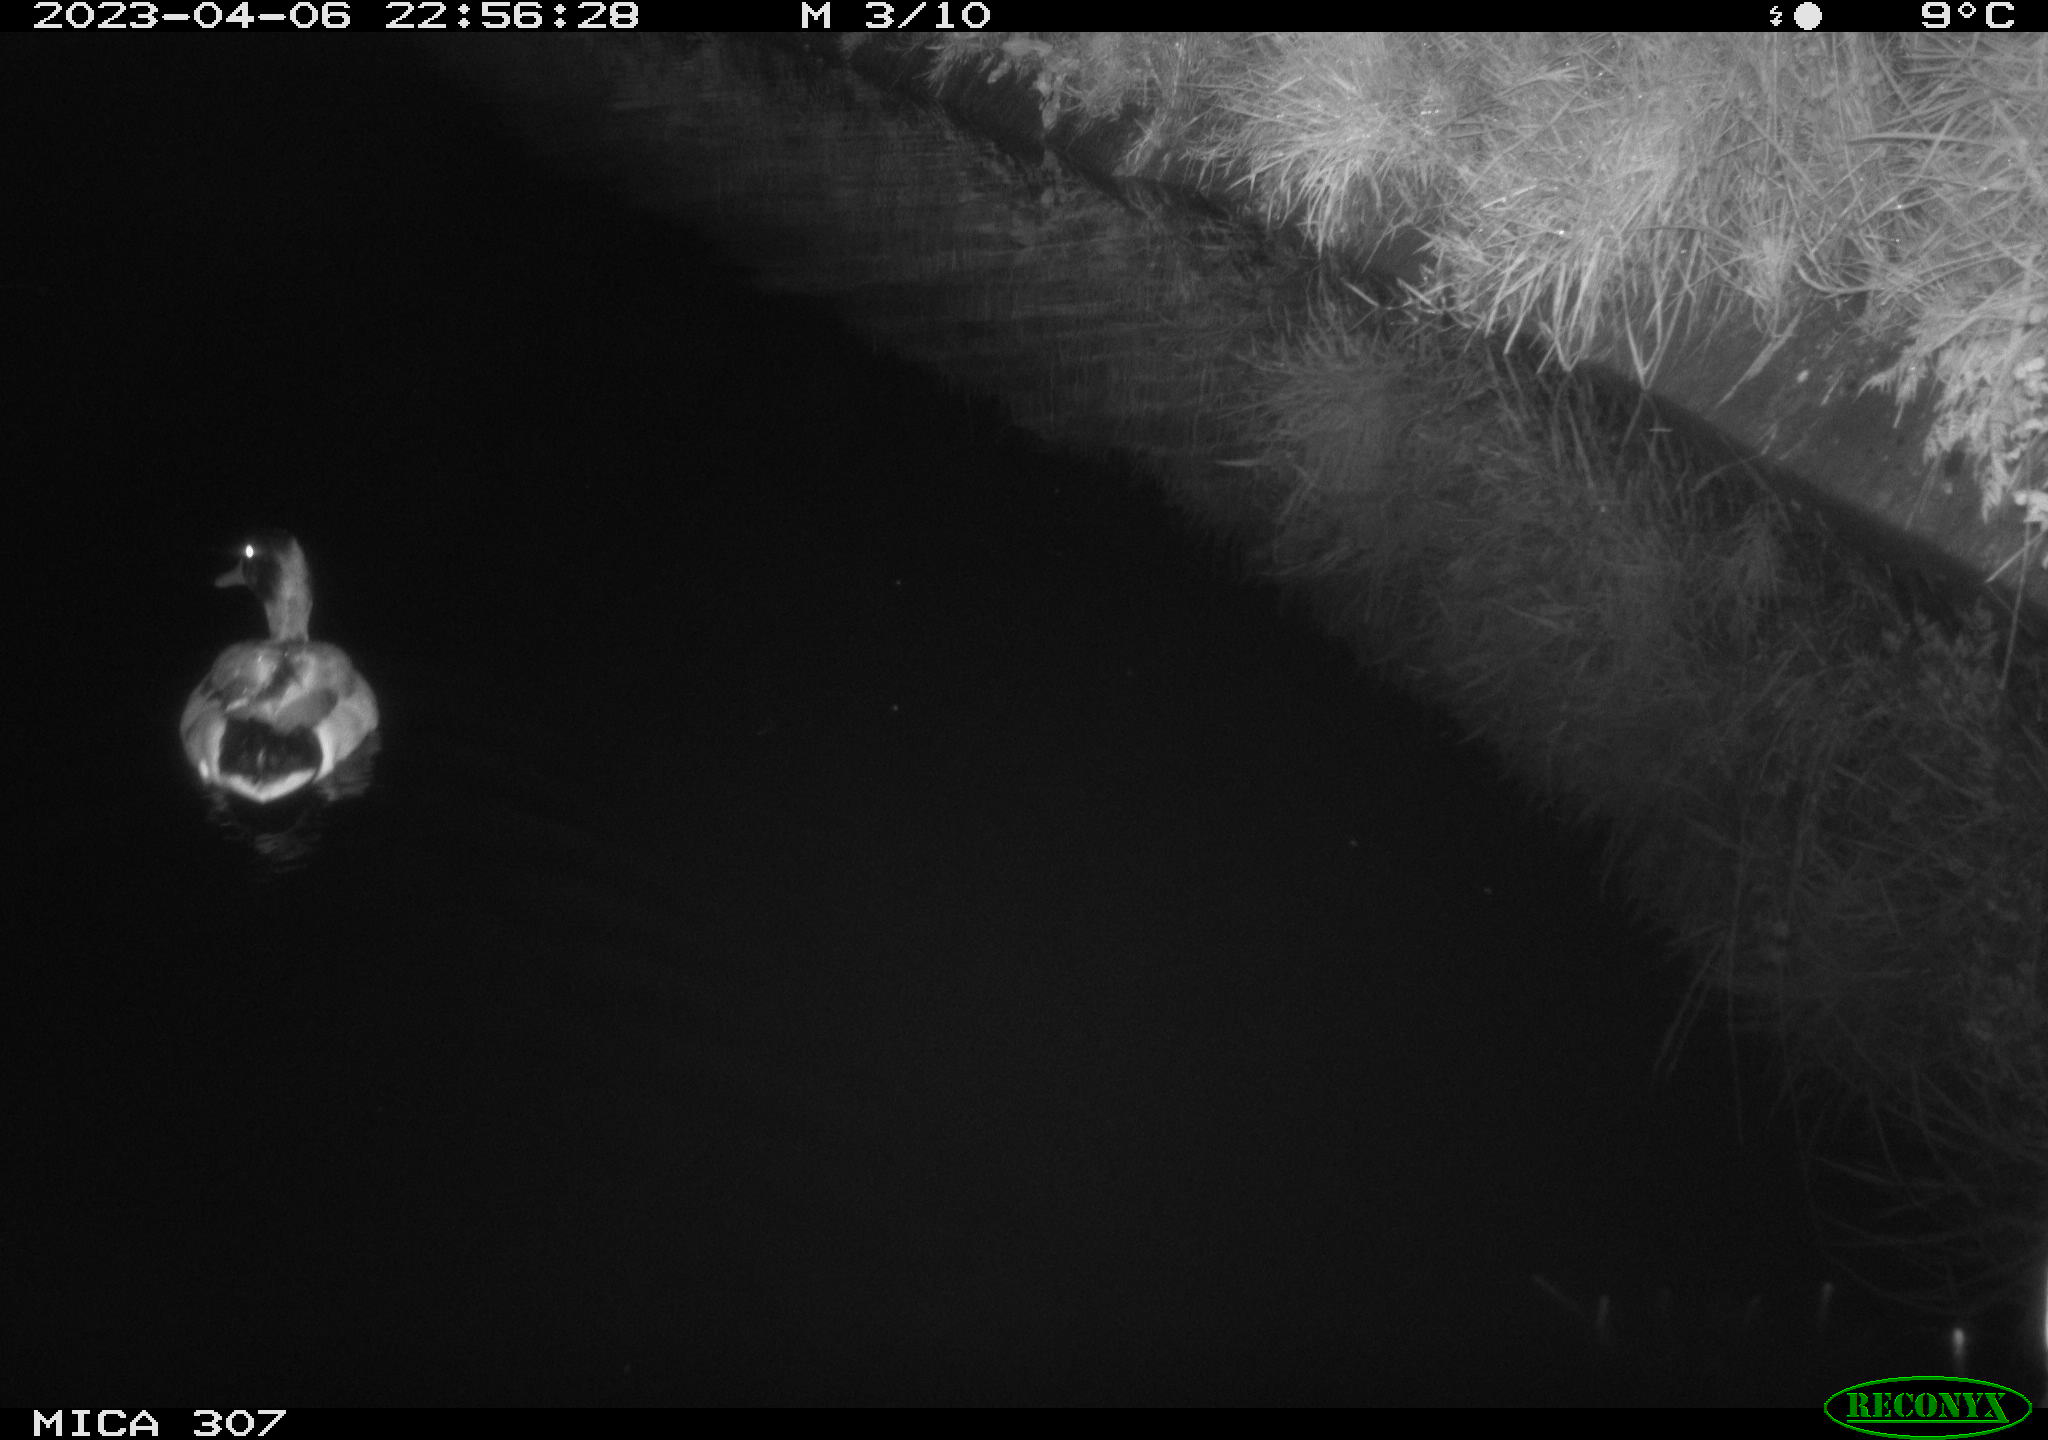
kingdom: Animalia
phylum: Chordata
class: Aves
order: Anseriformes
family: Anatidae
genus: Anas
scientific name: Anas
